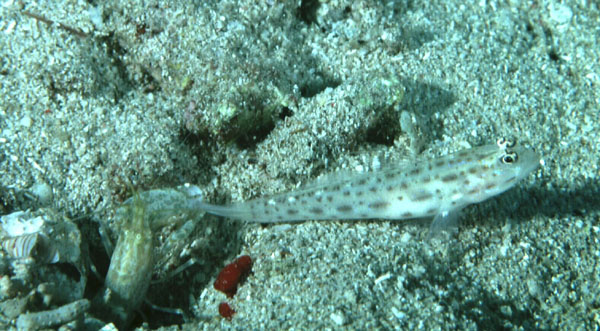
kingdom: Animalia
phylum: Chordata
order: Perciformes
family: Gobiidae
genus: Ctenogobiops
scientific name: Ctenogobiops pomastictus
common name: Spotfin shrimp goby
